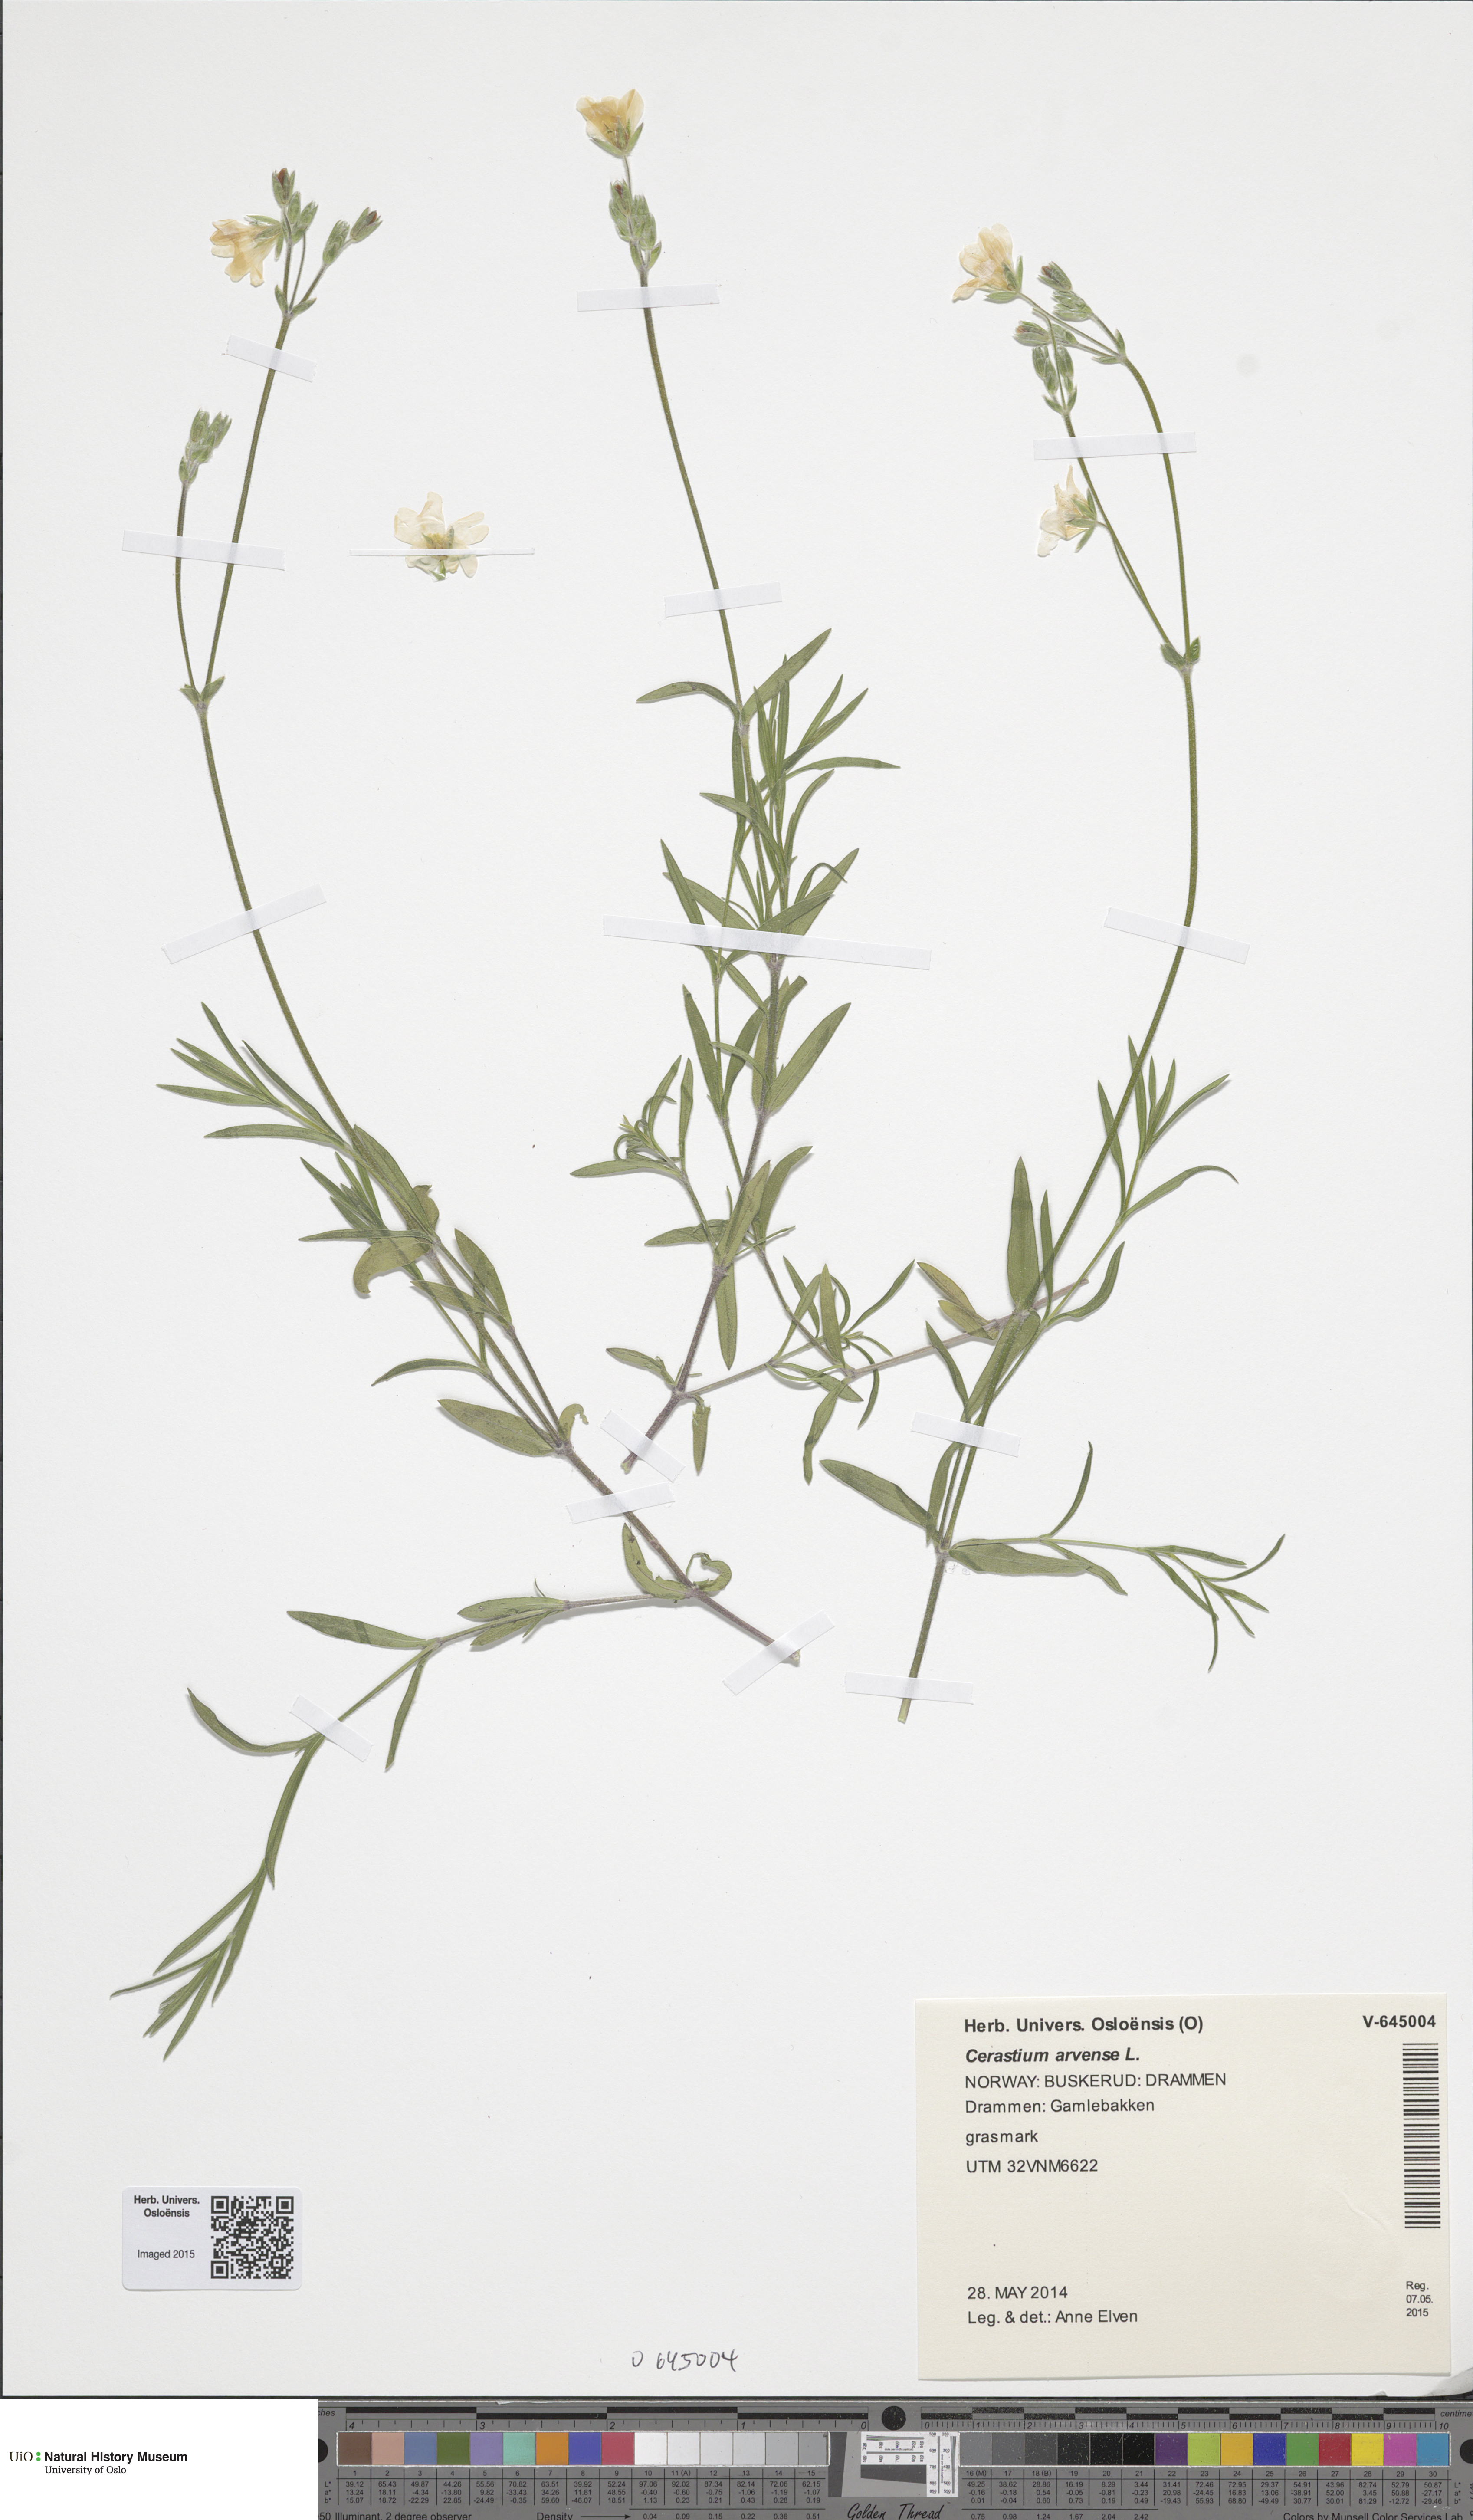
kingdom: Plantae
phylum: Tracheophyta
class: Magnoliopsida
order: Caryophyllales
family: Caryophyllaceae
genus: Cerastium
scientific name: Cerastium arvense
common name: Field mouse-ear
